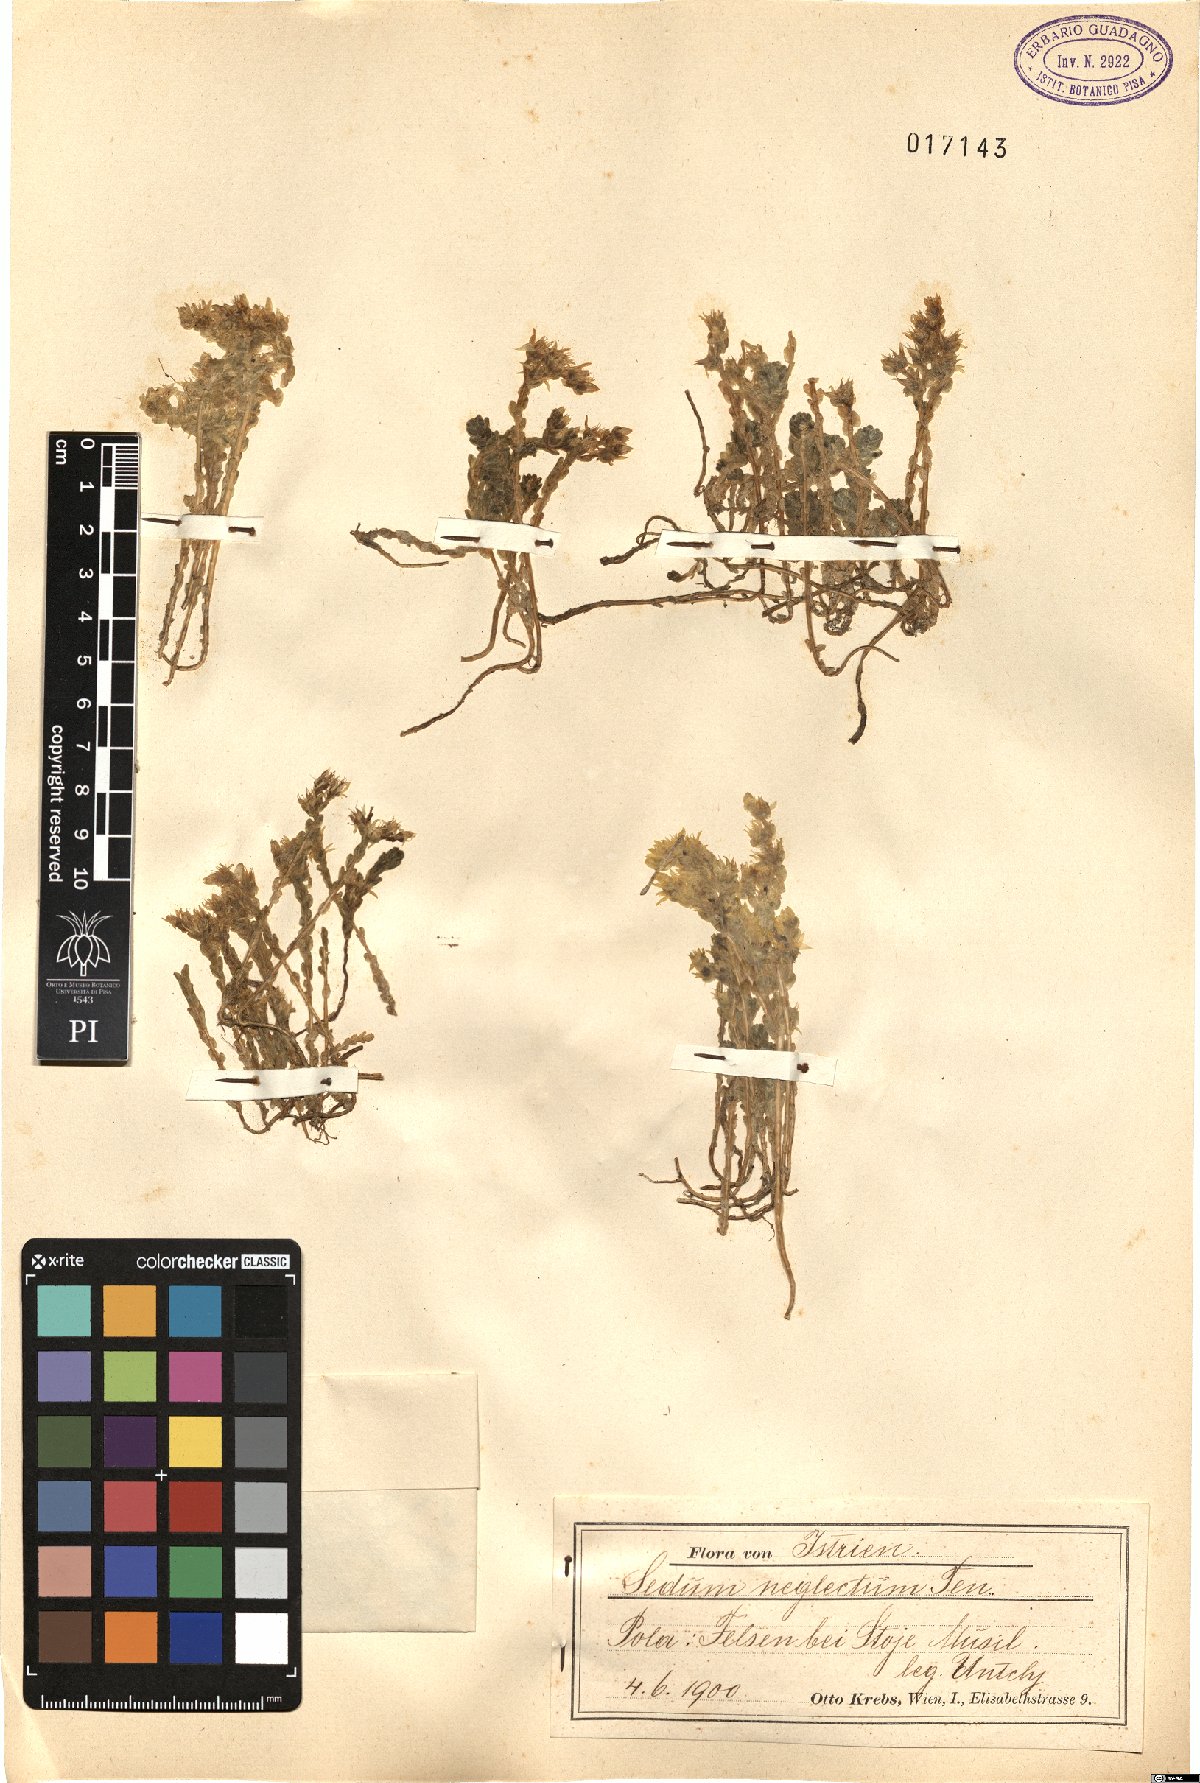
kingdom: Plantae
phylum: Tracheophyta
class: Magnoliopsida
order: Saxifragales
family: Crassulaceae
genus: Sedum
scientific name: Sedum acre
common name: Biting stonecrop
